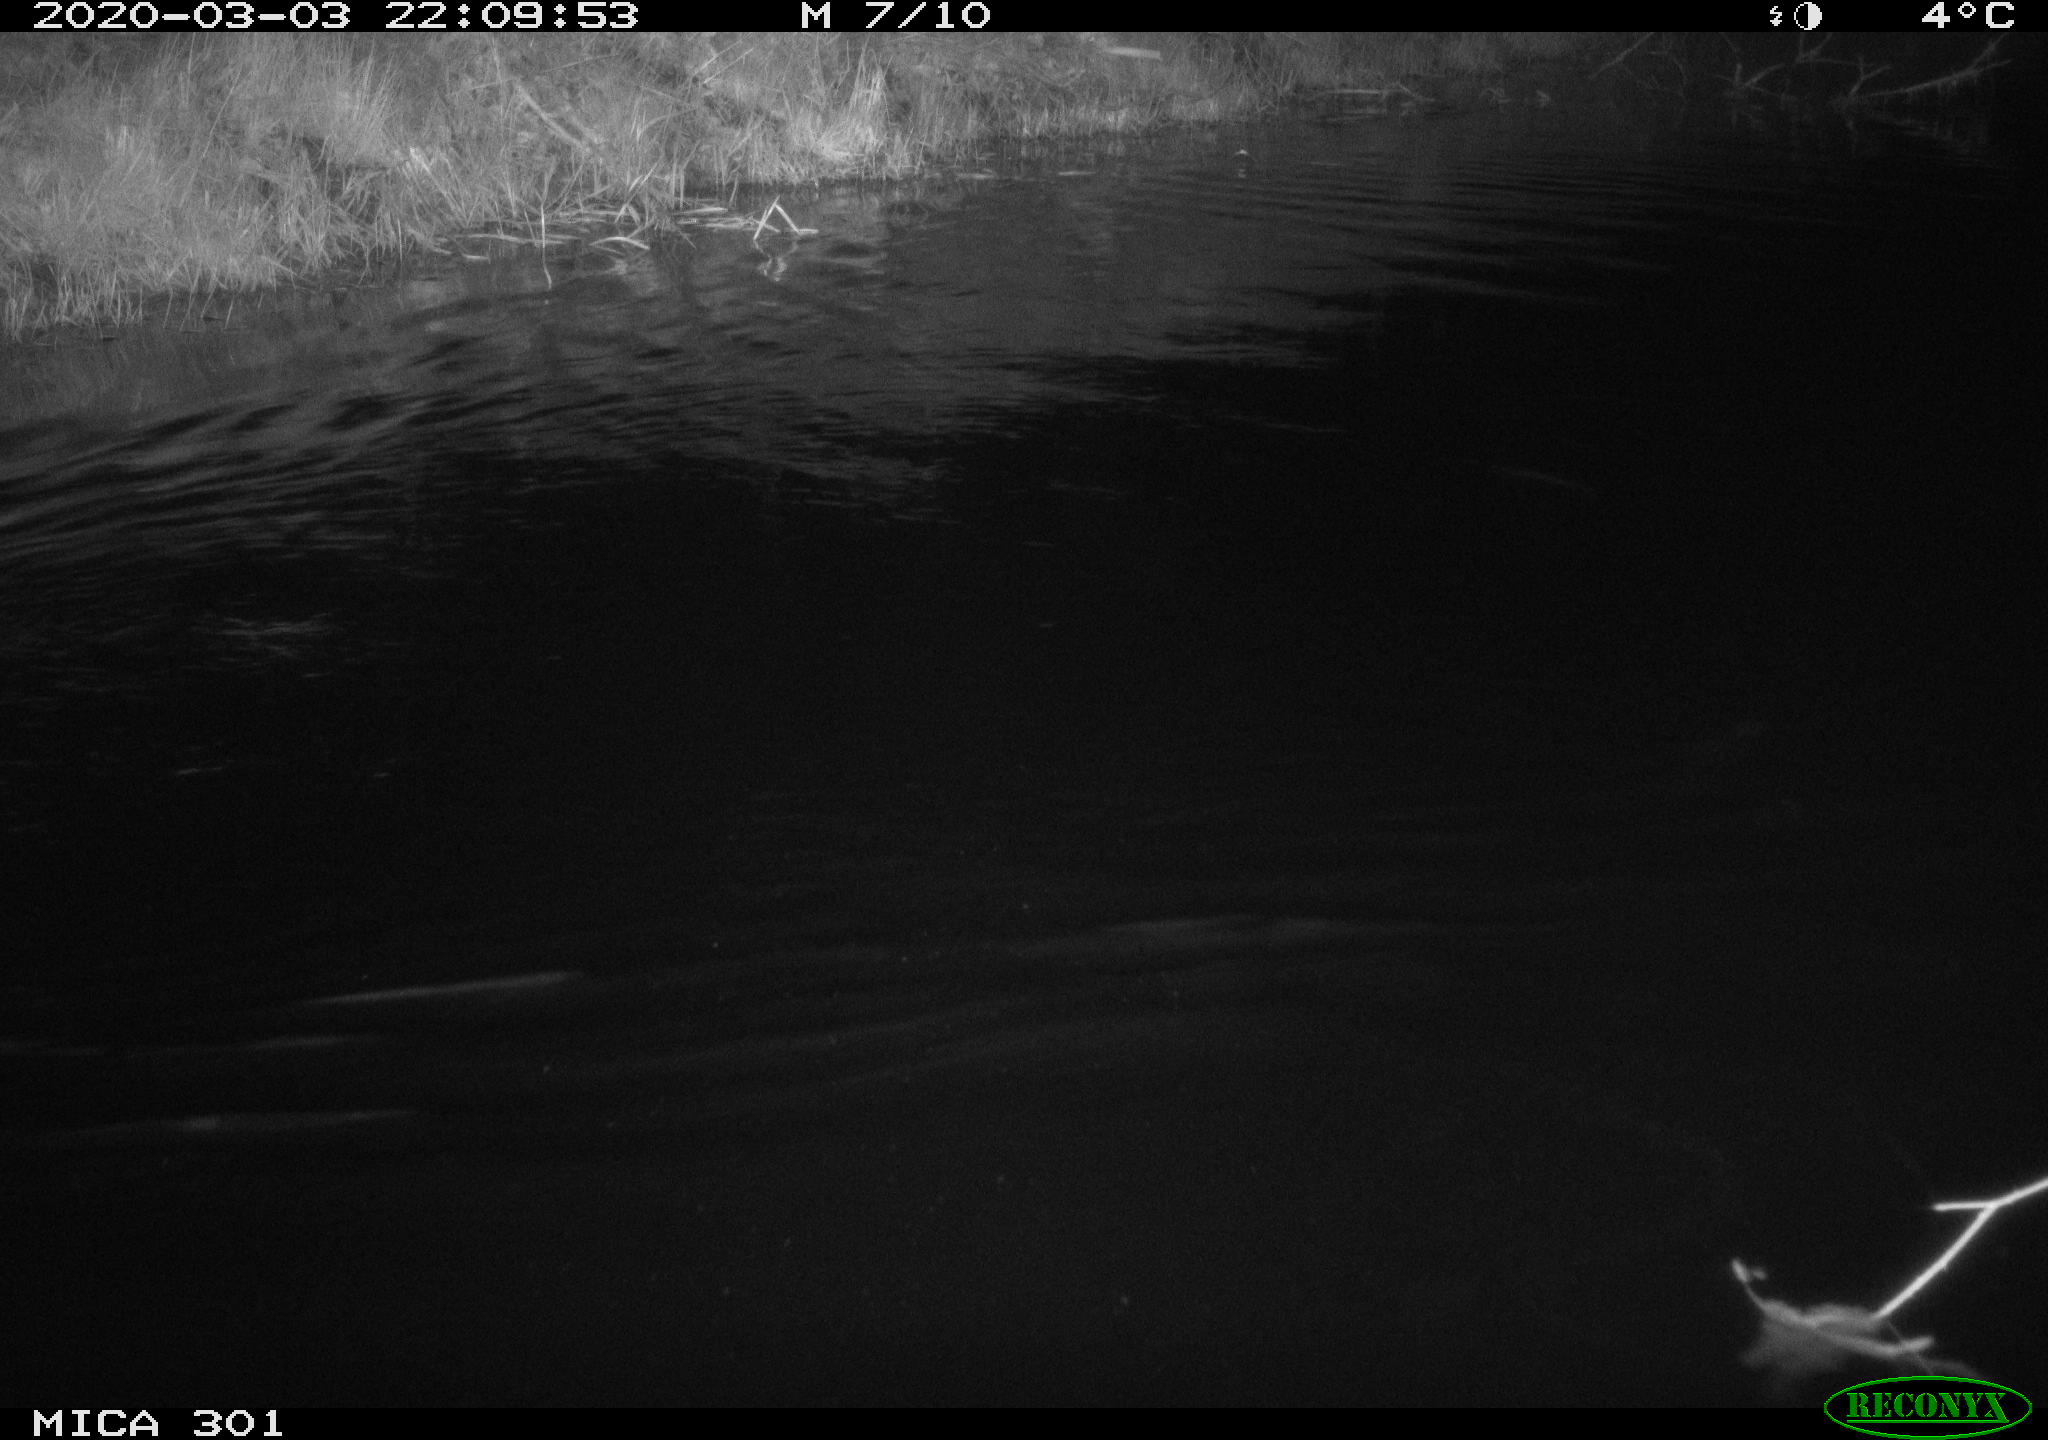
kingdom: Animalia
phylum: Chordata
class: Mammalia
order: Rodentia
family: Castoridae
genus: Castor
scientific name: Castor fiber
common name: Eurasian beaver
